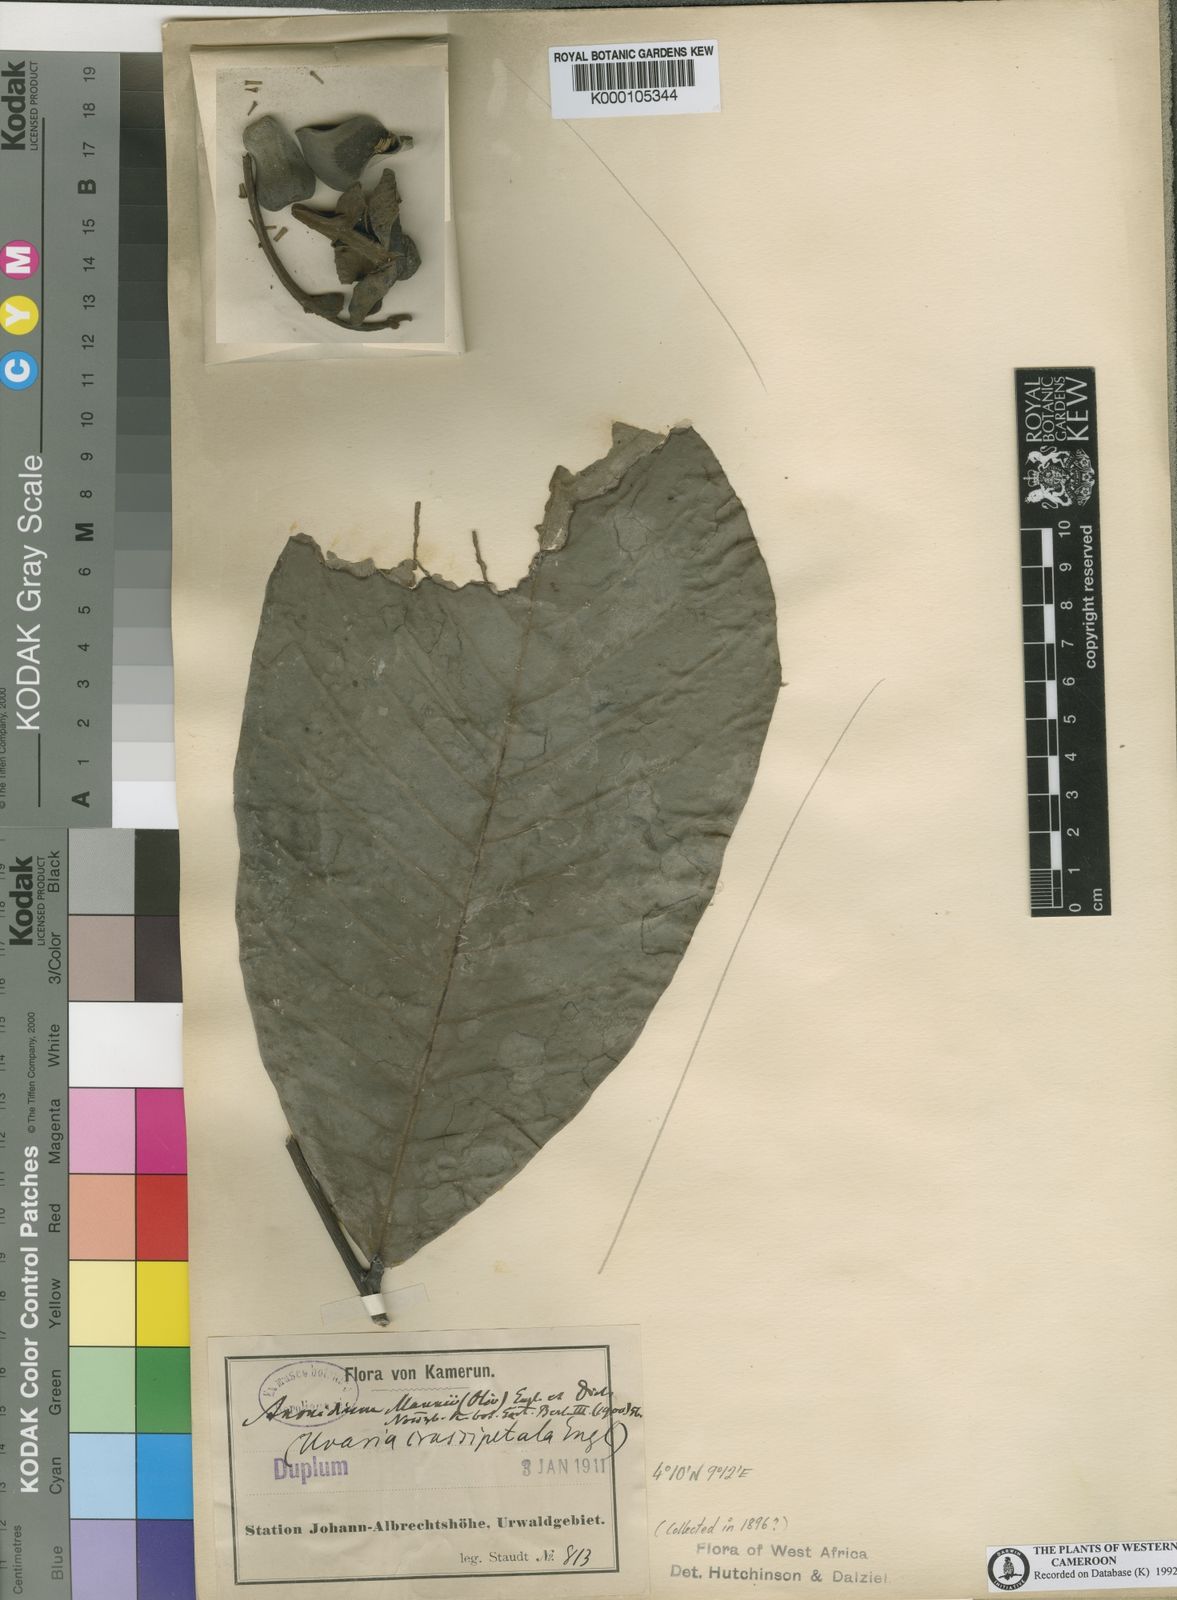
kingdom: Plantae
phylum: Tracheophyta
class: Magnoliopsida
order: Magnoliales
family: Annonaceae
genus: Anonidium
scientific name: Anonidium mannii
